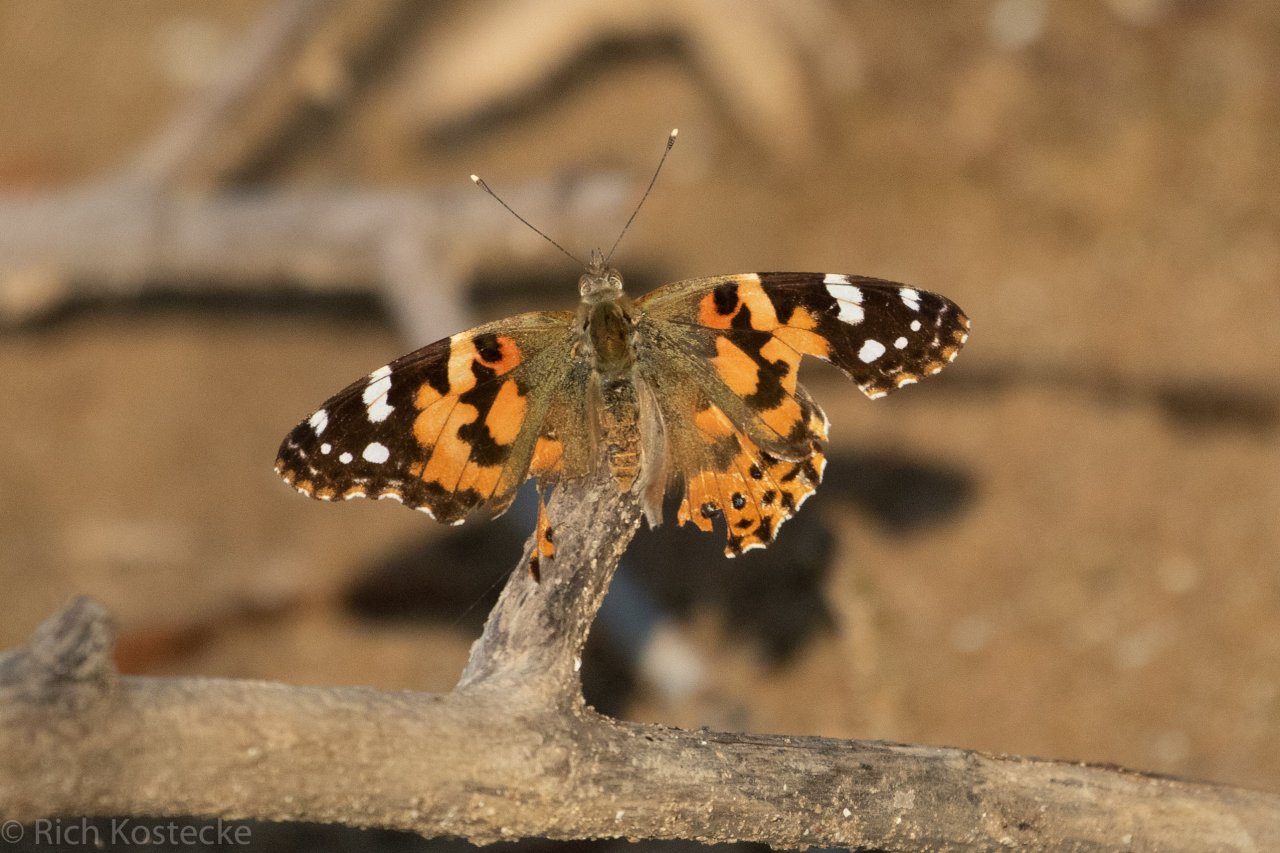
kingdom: Animalia
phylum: Arthropoda
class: Insecta
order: Lepidoptera
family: Nymphalidae
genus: Vanessa
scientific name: Vanessa cardui
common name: Painted Lady
